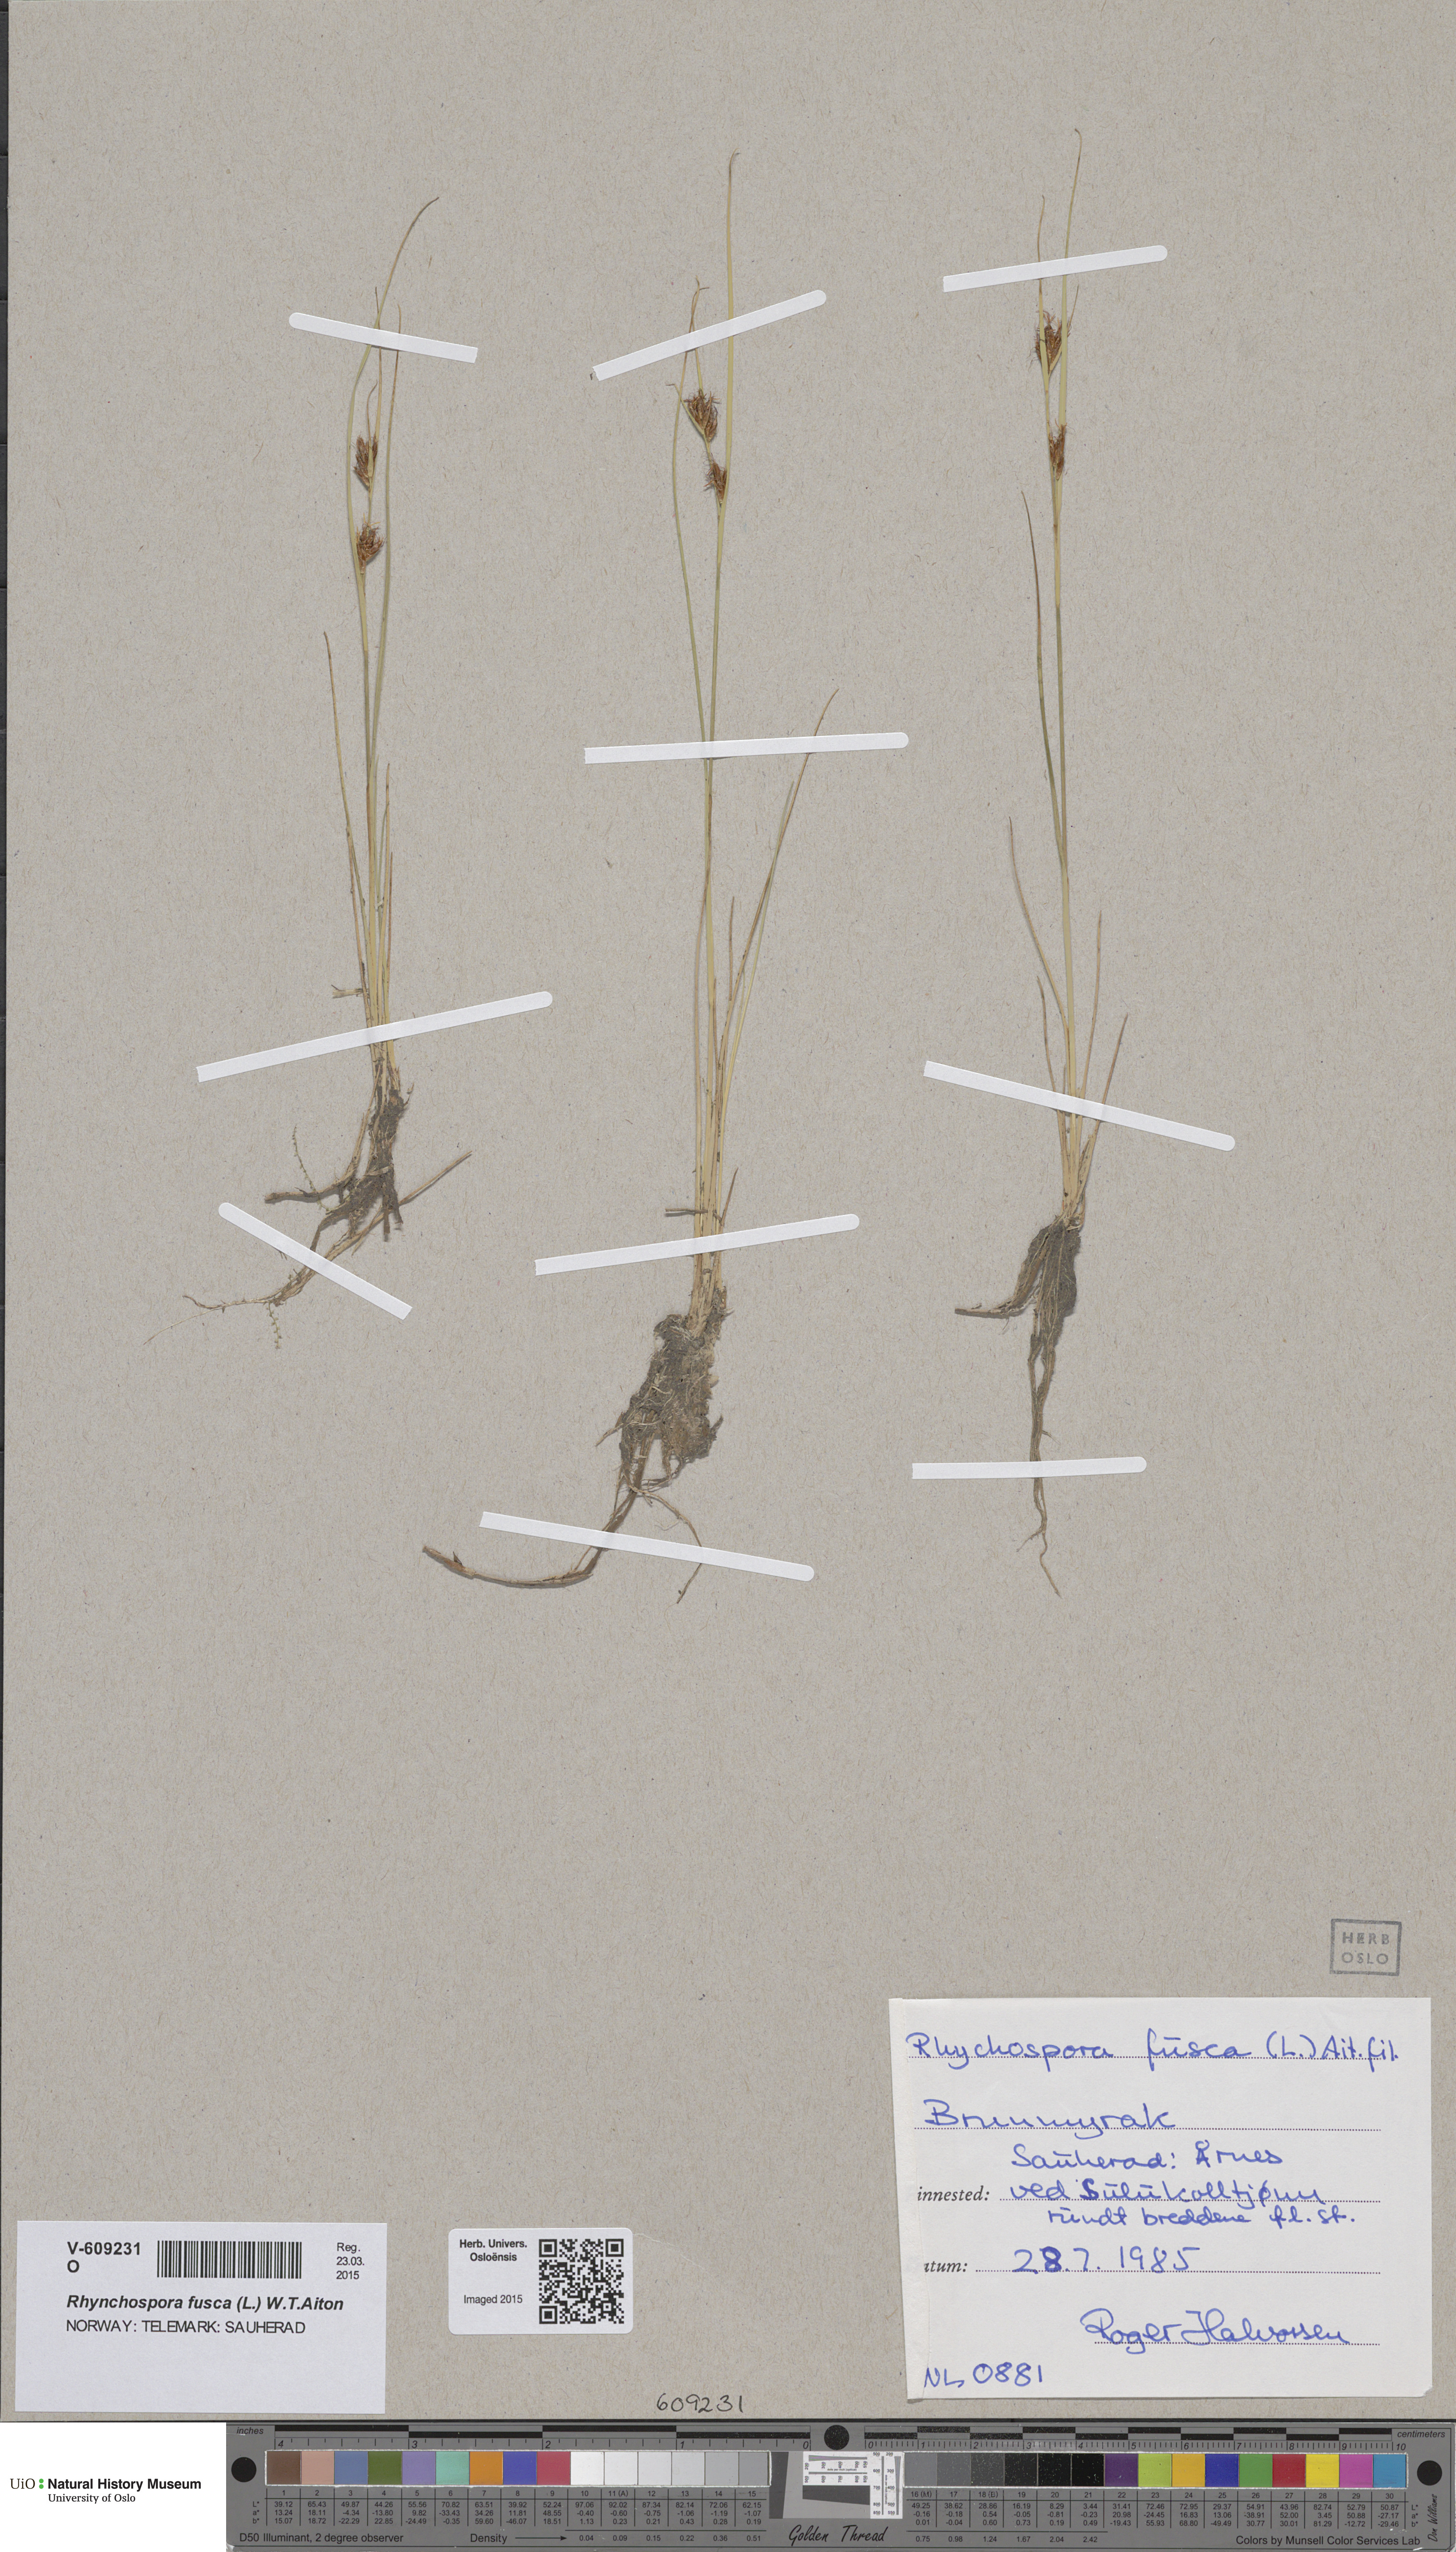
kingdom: Plantae
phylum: Tracheophyta
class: Liliopsida
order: Poales
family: Cyperaceae
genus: Rhynchospora
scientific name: Rhynchospora fusca
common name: Brown beak-sedge
